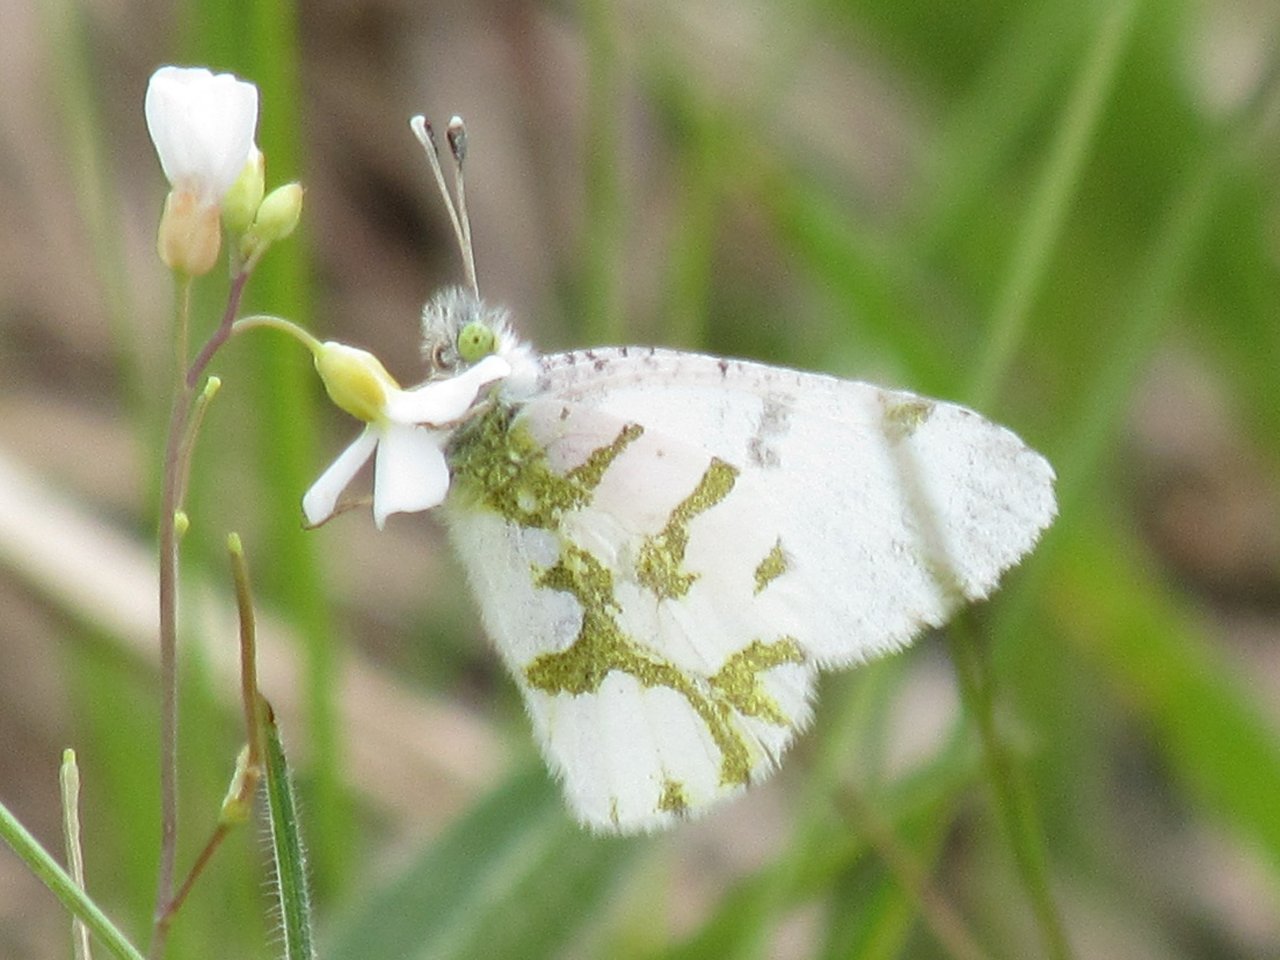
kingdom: Animalia
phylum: Arthropoda
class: Insecta
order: Lepidoptera
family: Pieridae
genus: Euchloe
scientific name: Euchloe olympia
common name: Olympia Marble
